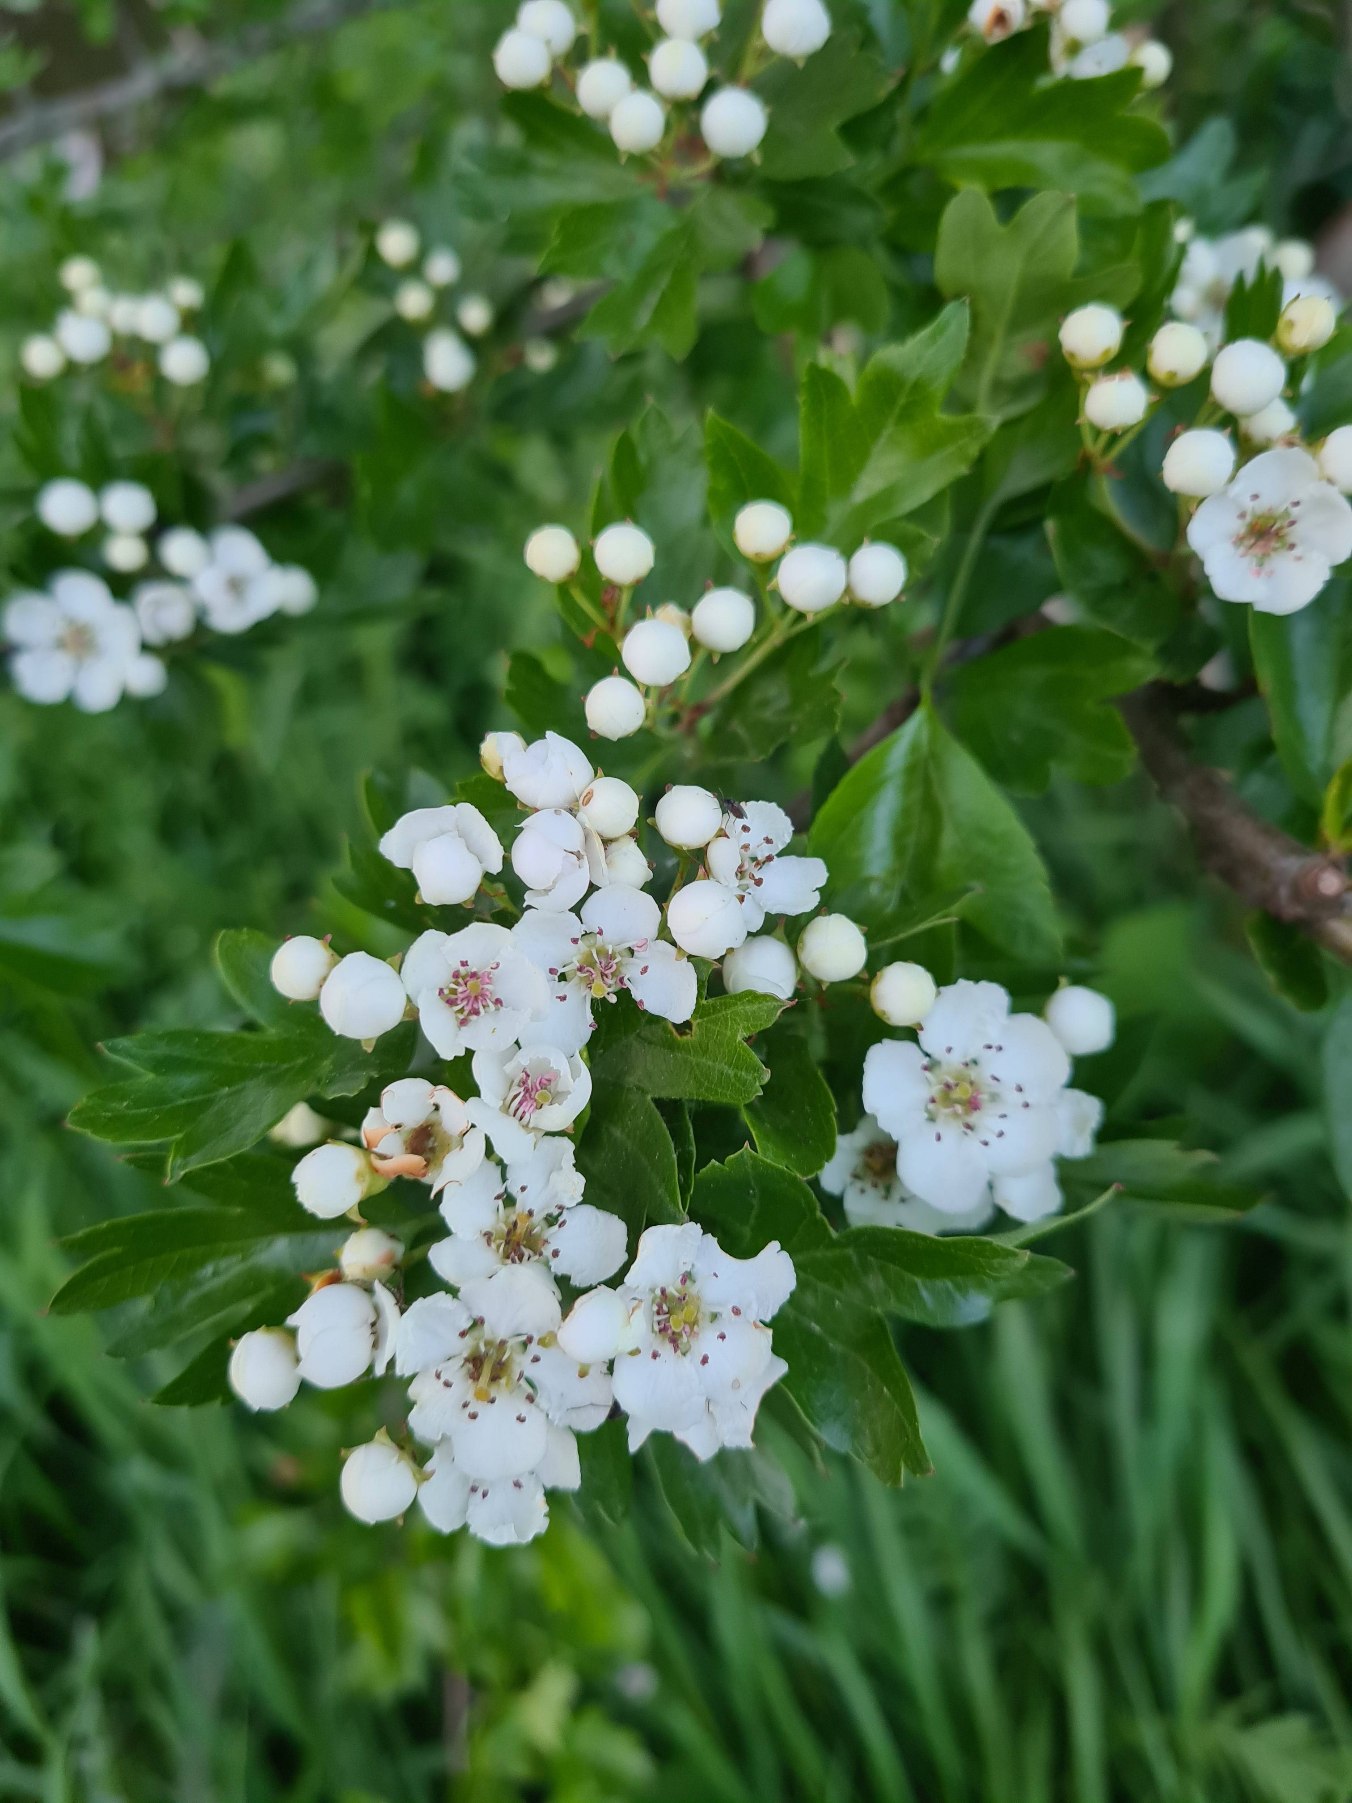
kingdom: Plantae
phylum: Tracheophyta
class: Magnoliopsida
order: Rosales
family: Rosaceae
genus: Crataegus
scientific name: Crataegus monogyna
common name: Engriflet hvidtjørn
